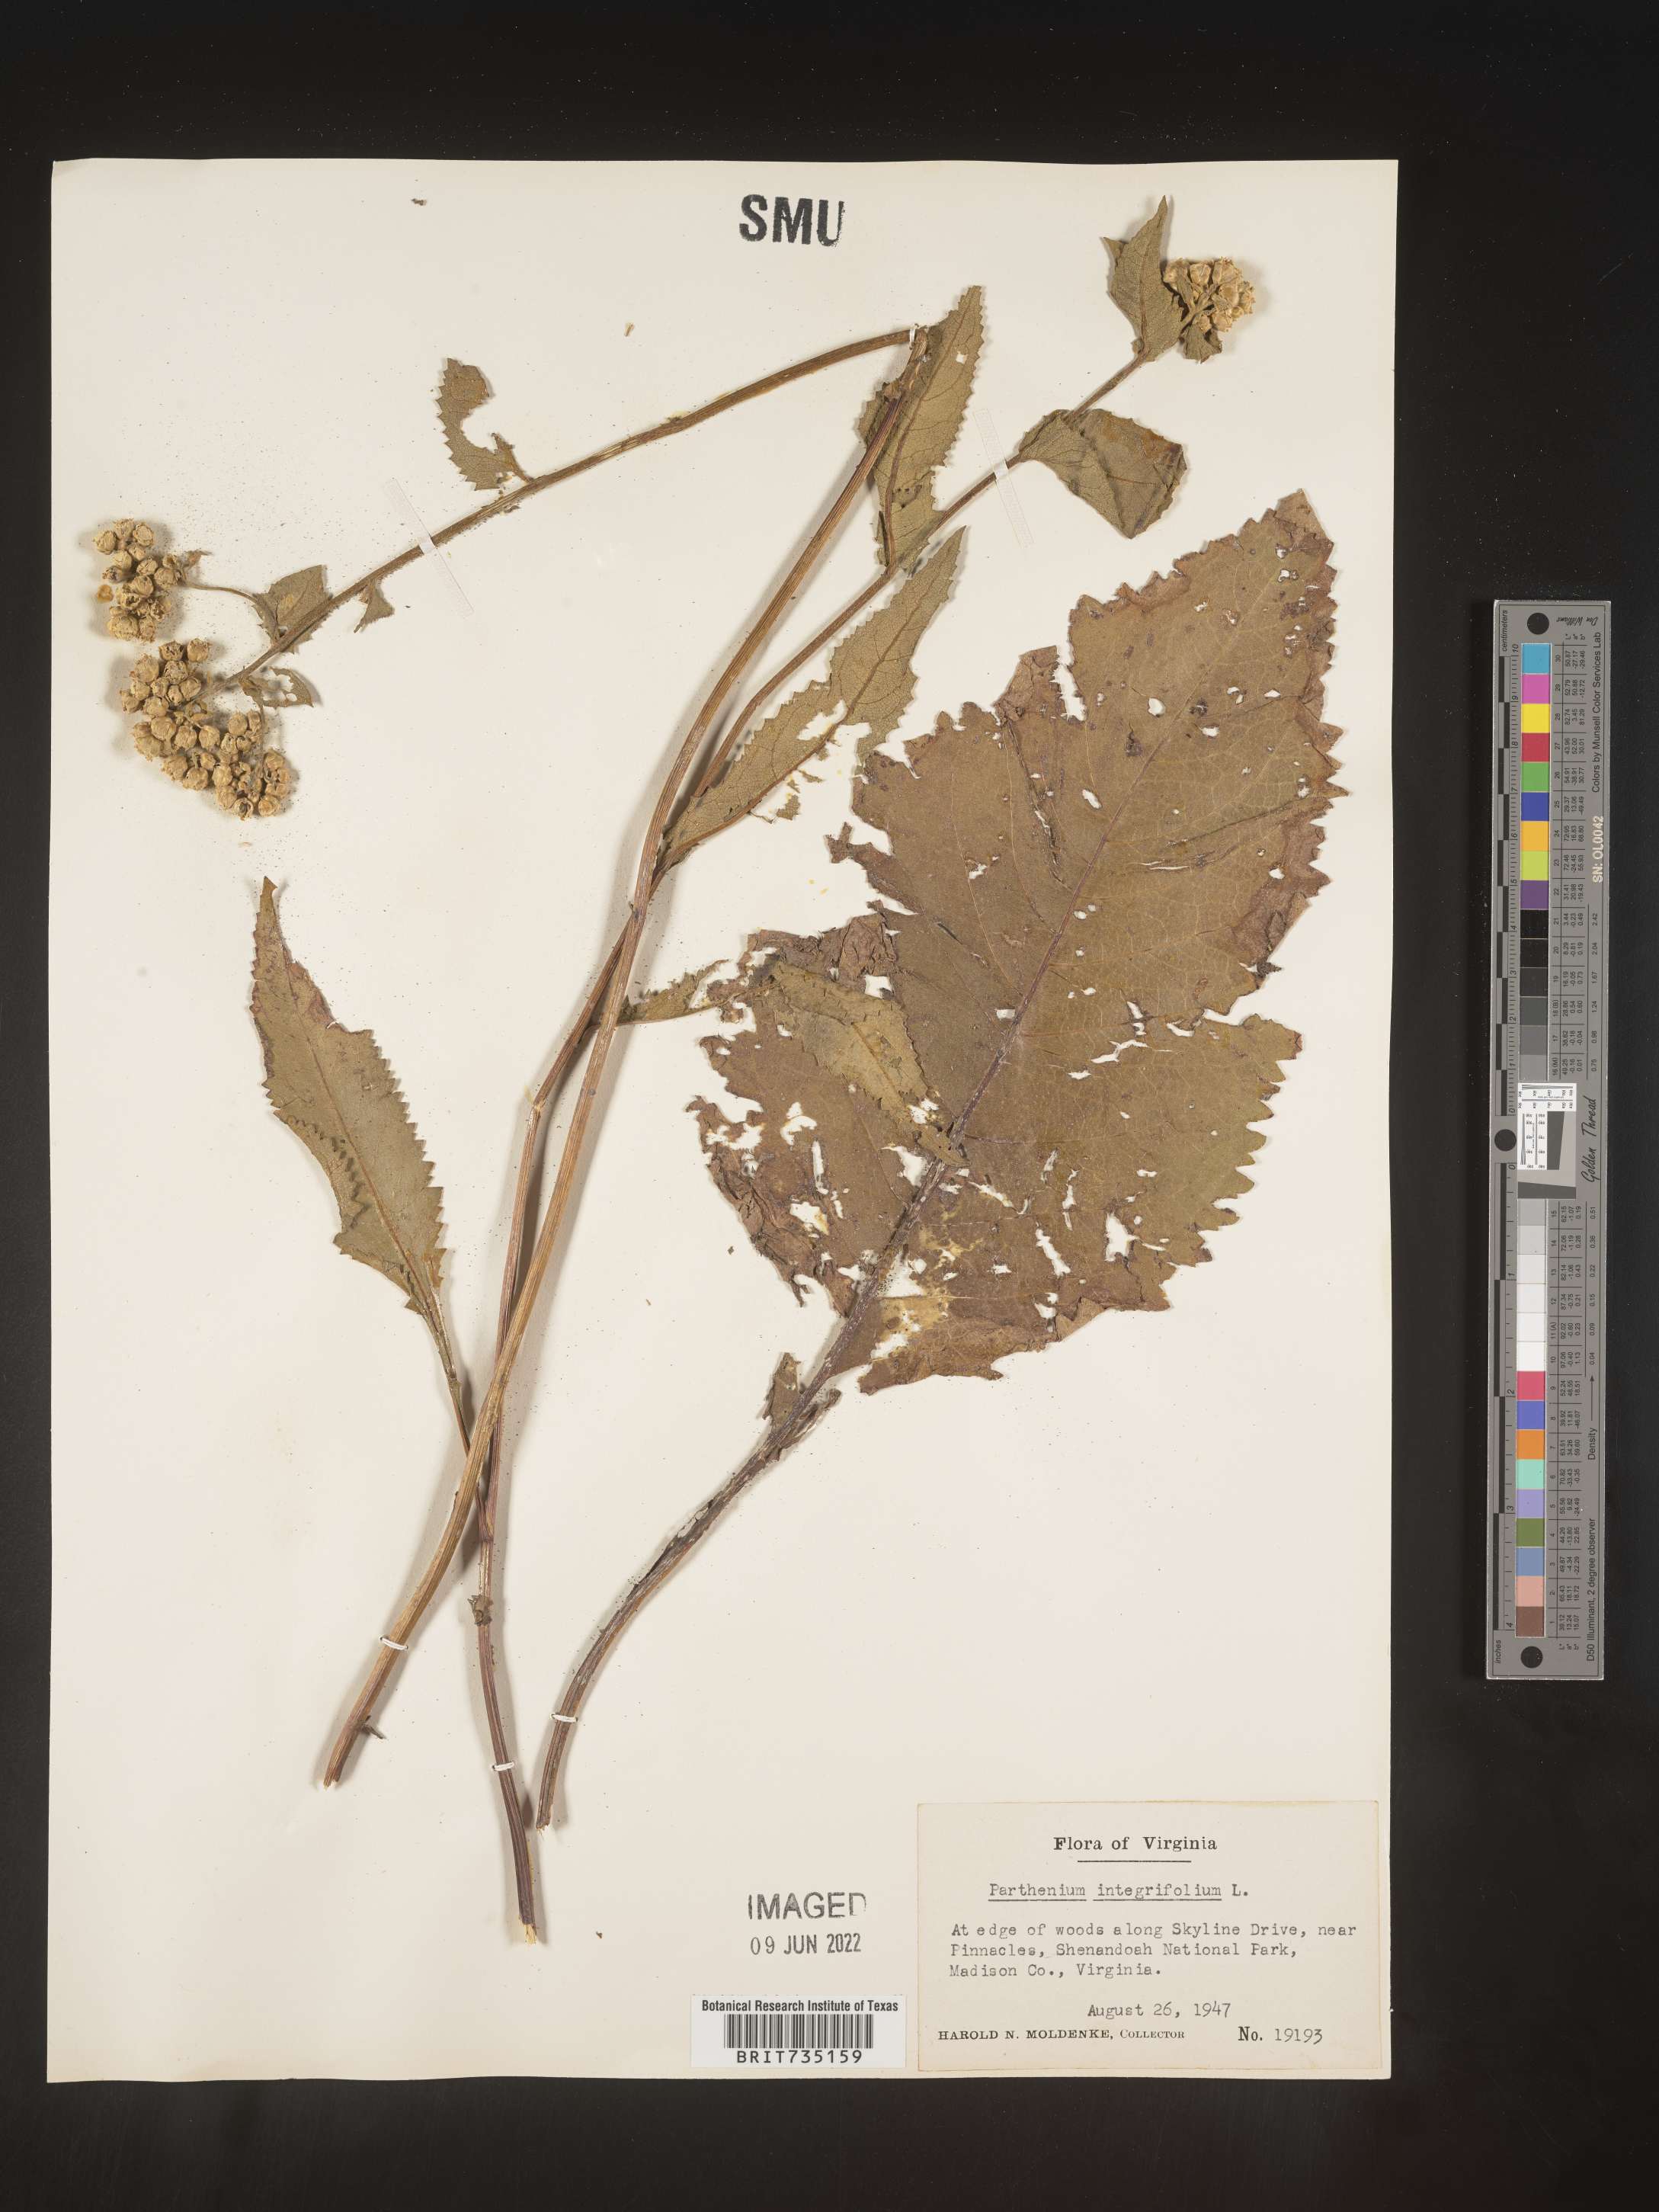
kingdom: Plantae
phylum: Tracheophyta
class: Magnoliopsida
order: Asterales
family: Asteraceae
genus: Parthenium
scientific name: Parthenium integrifolium
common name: American feverfew
